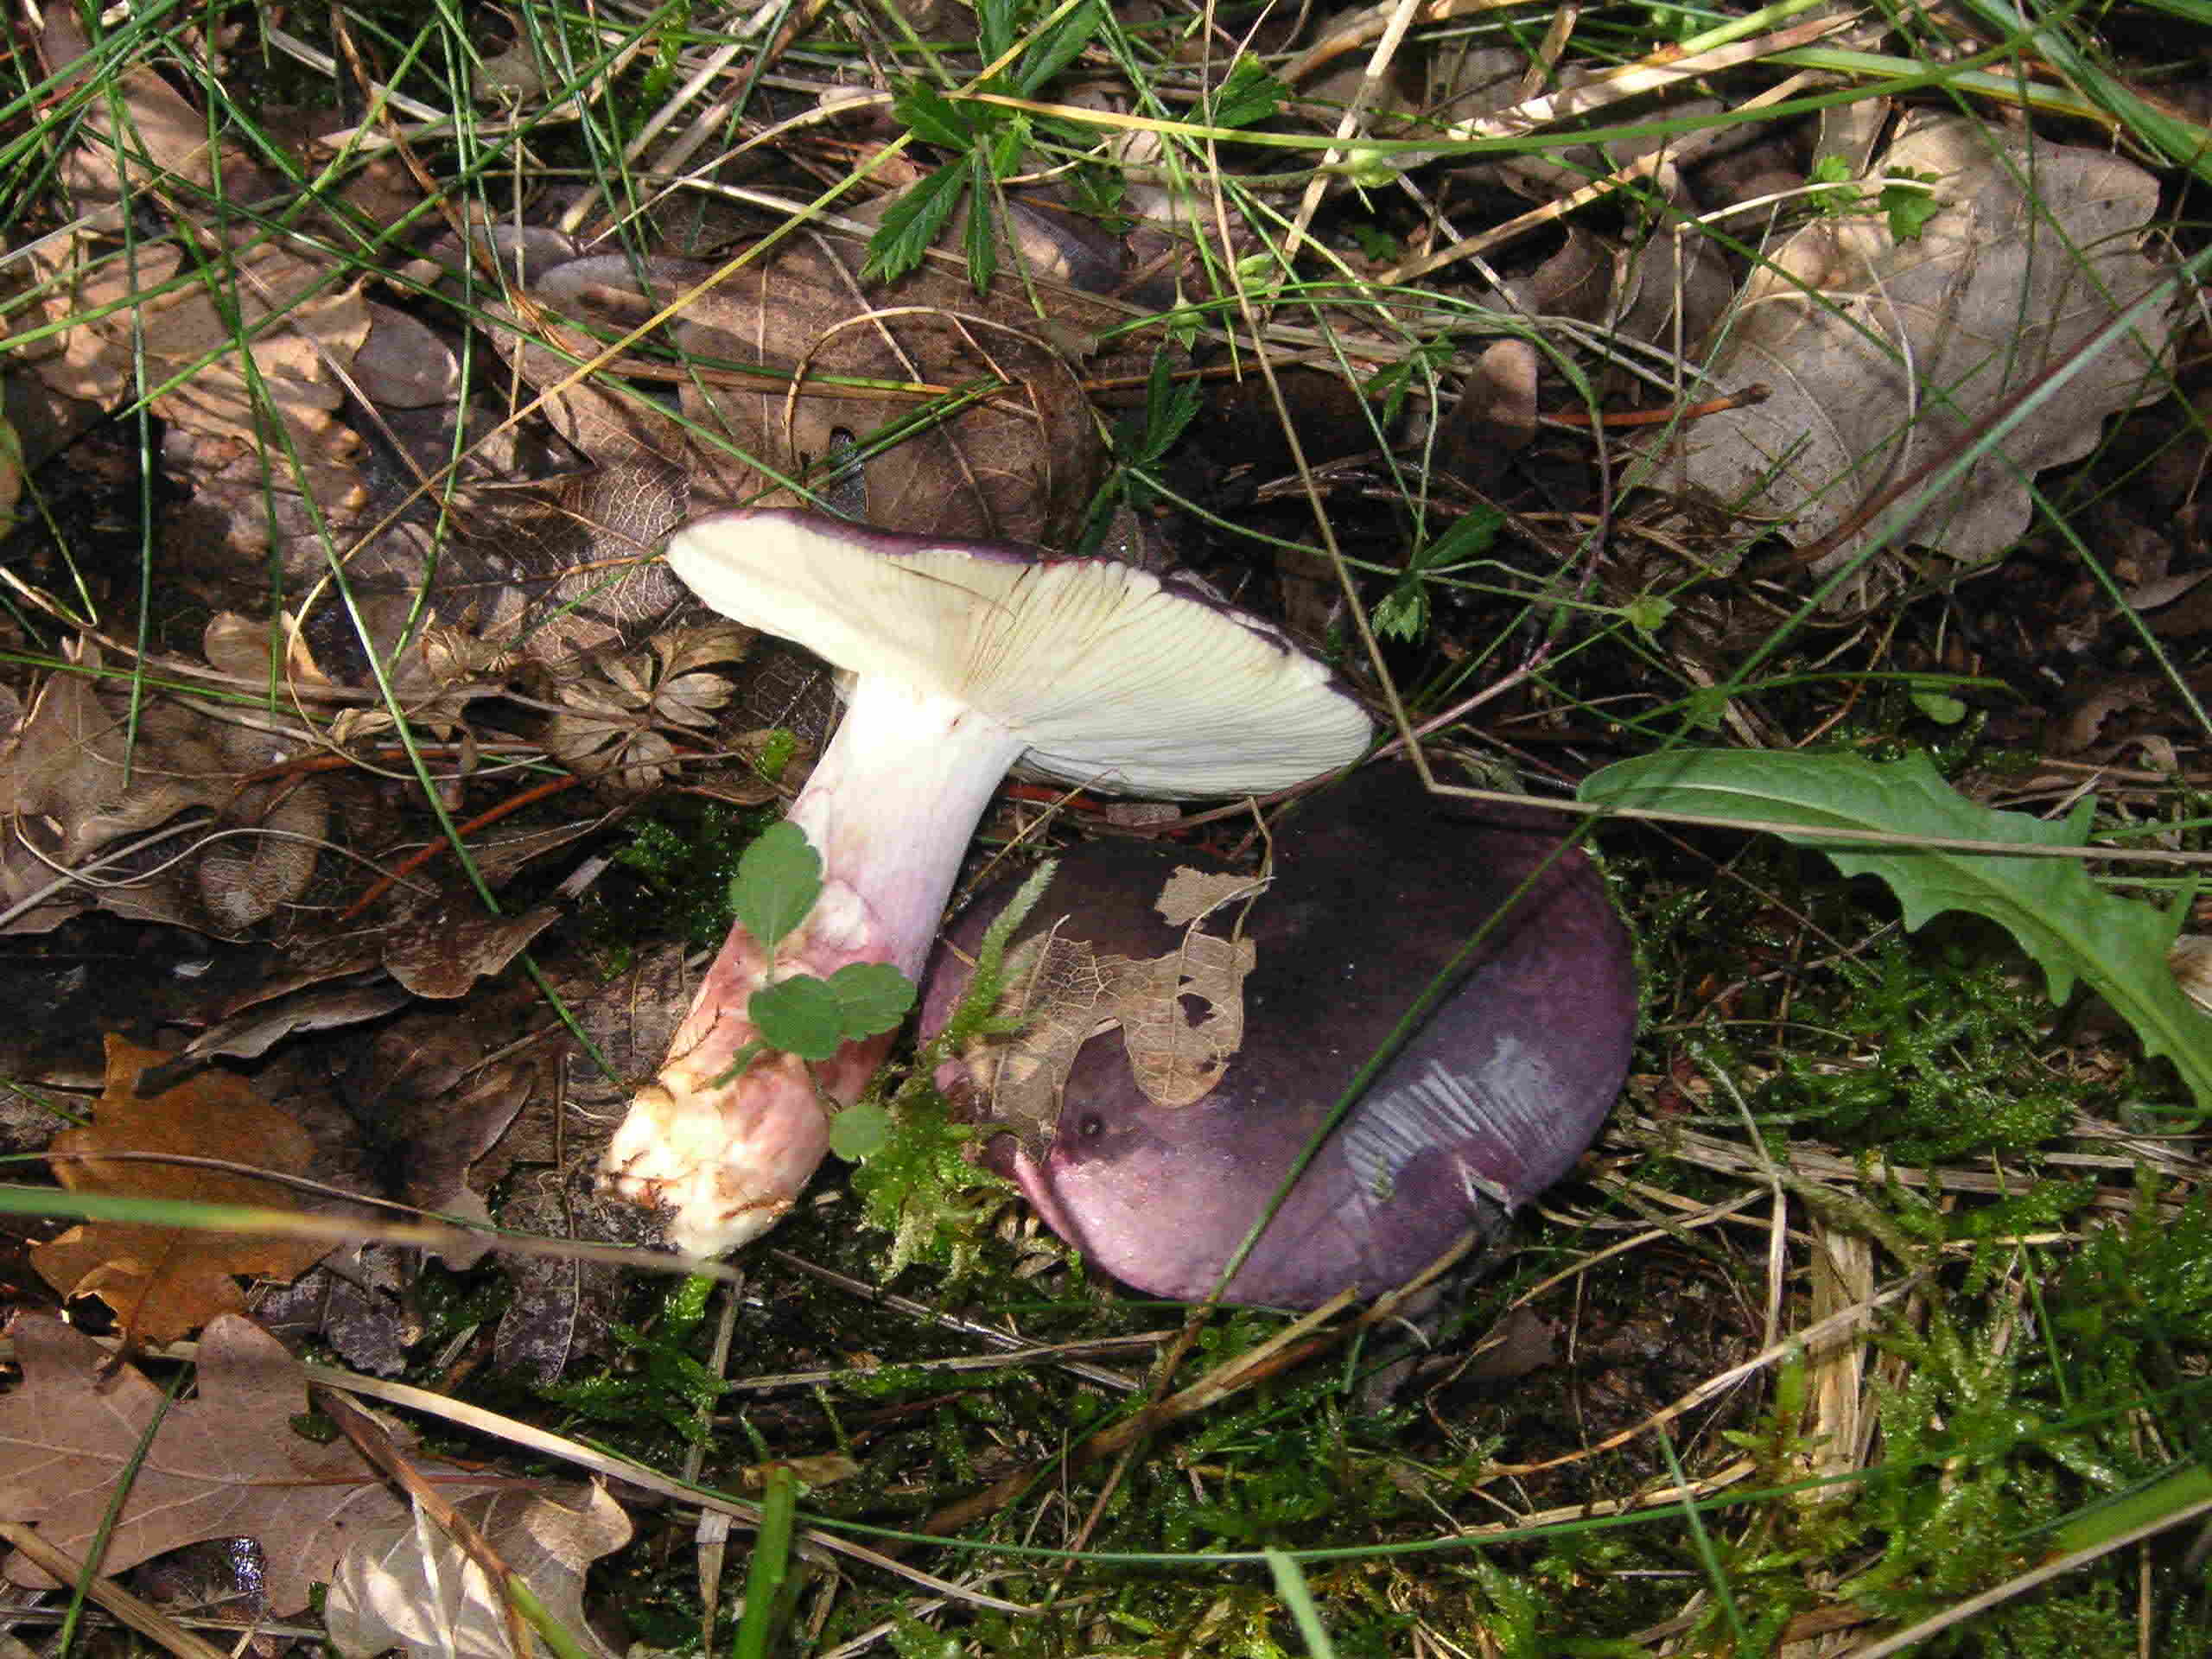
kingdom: Fungi
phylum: Basidiomycota
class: Agaricomycetes
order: Russulales
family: Russulaceae
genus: Russula
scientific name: Russula sardonia
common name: citronbladet skørhat
